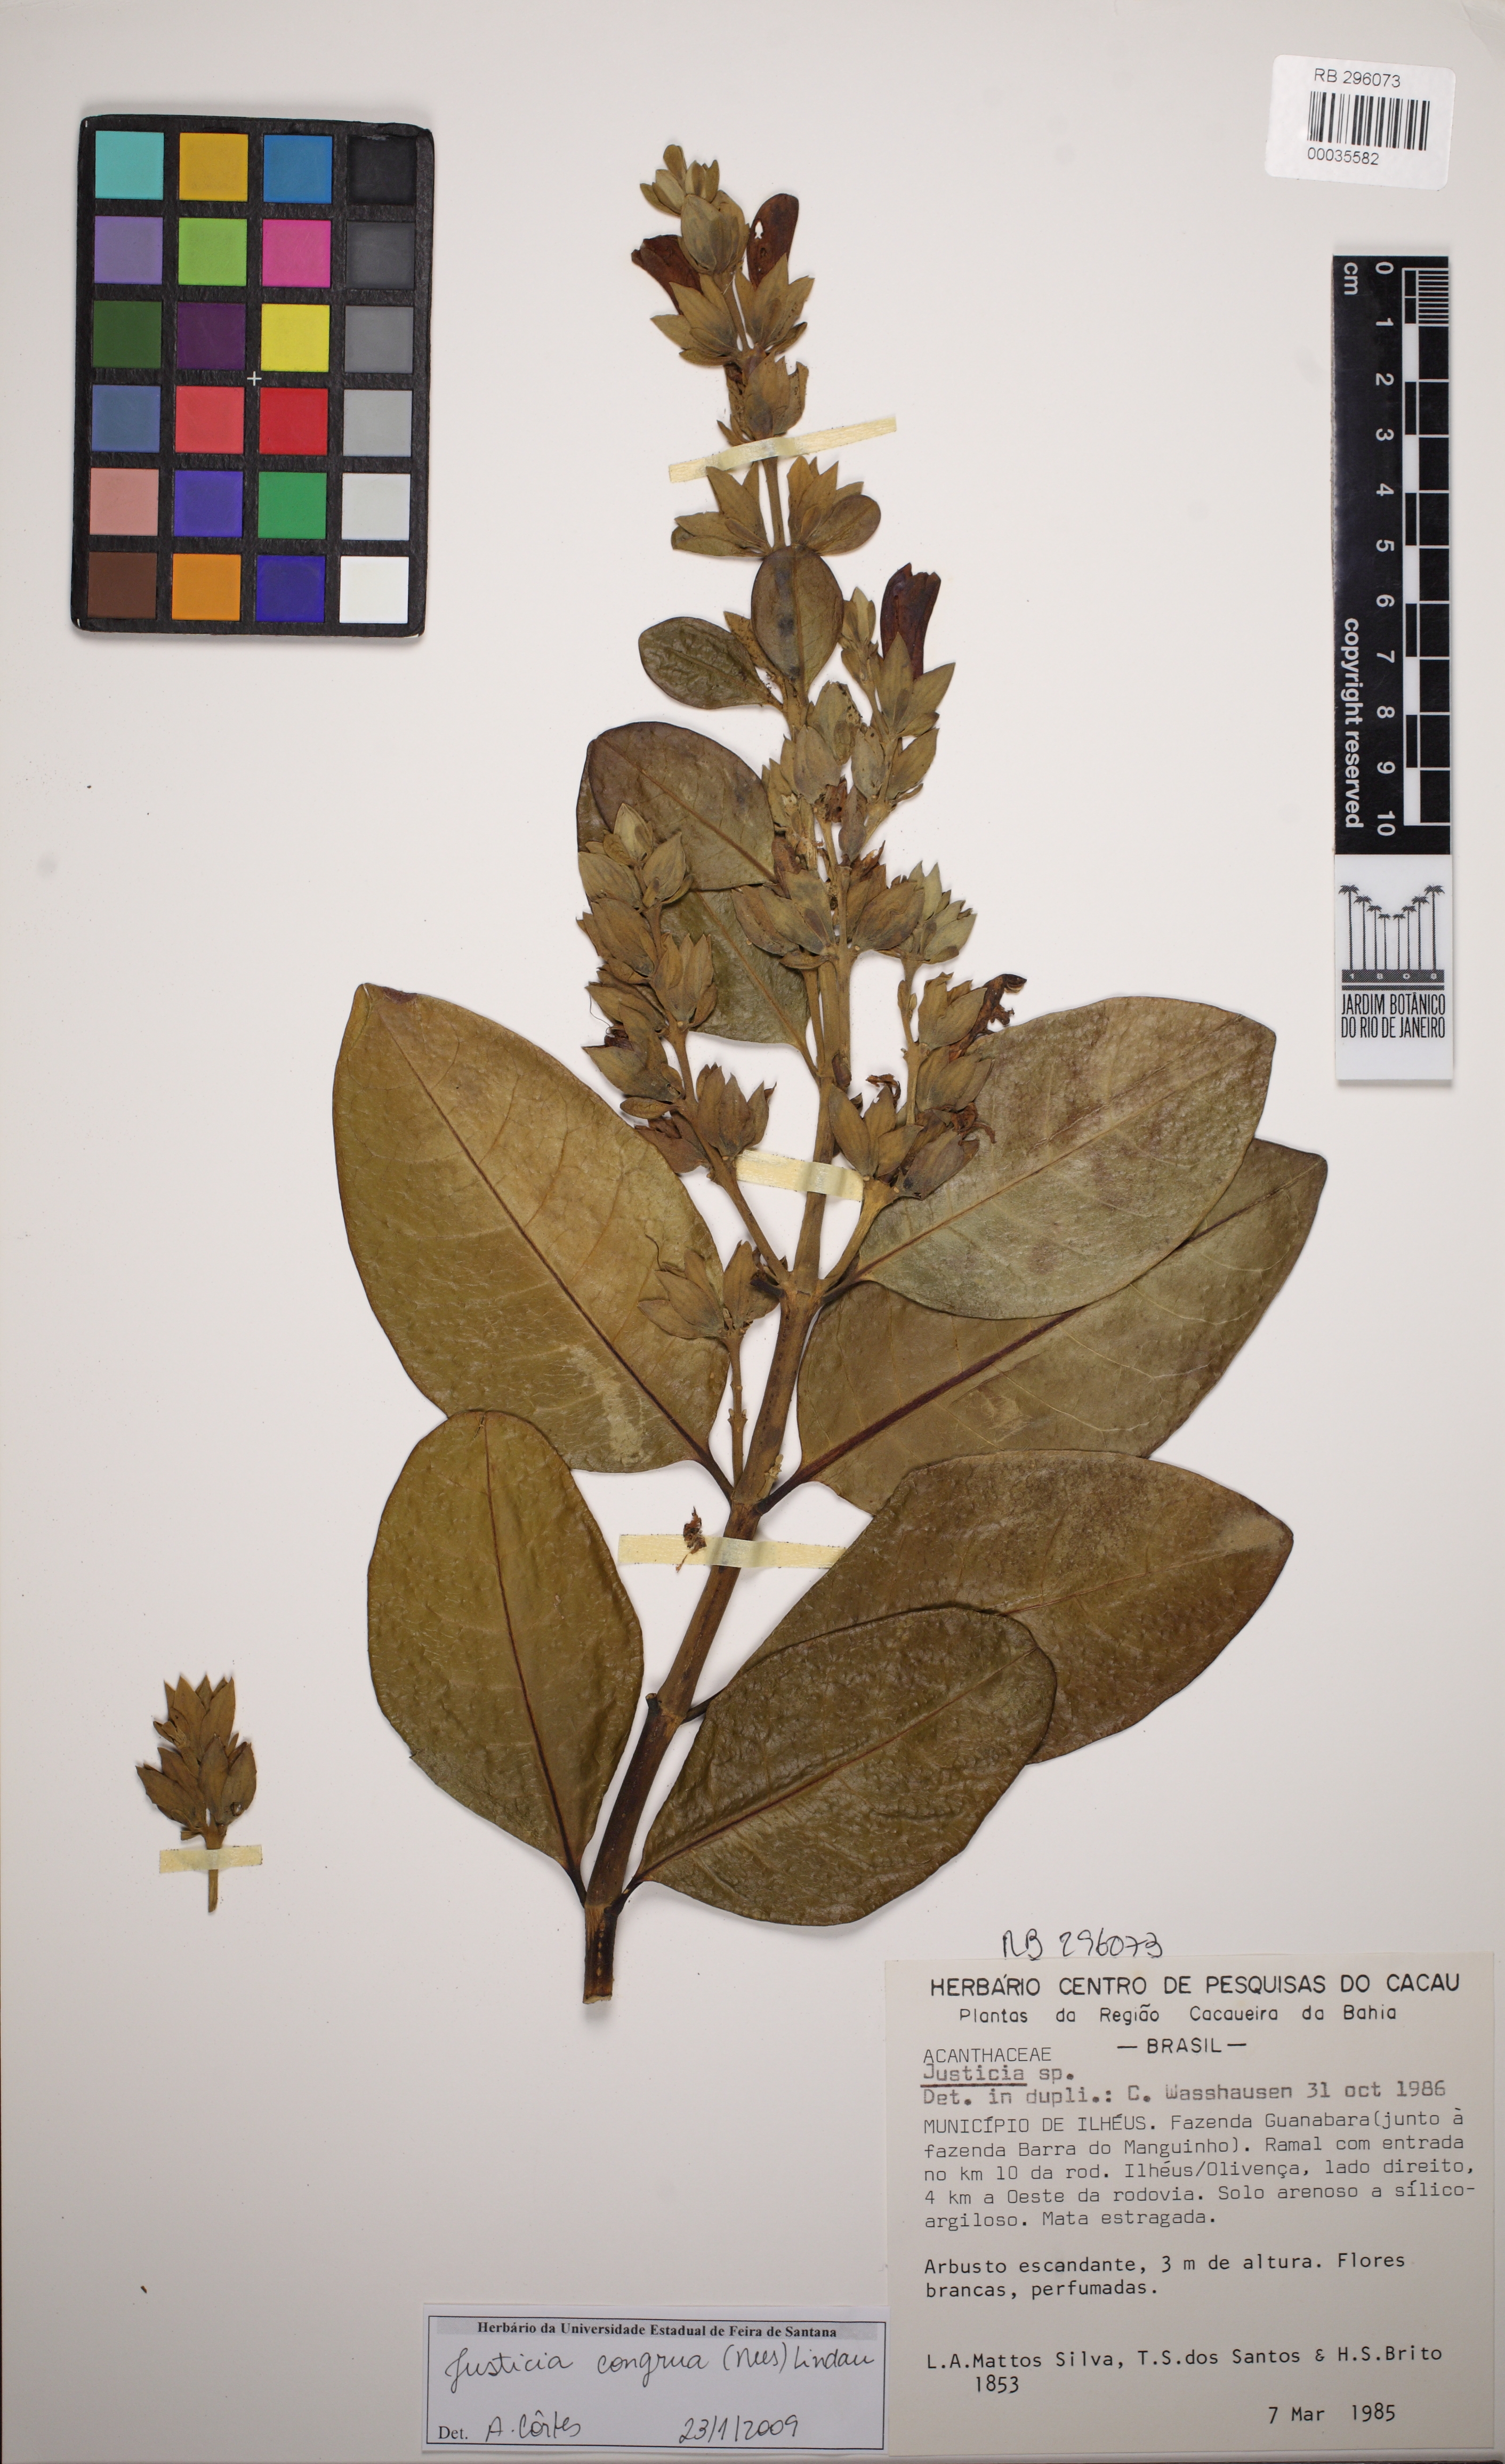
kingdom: Plantae
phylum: Tracheophyta
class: Magnoliopsida
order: Lamiales
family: Acanthaceae
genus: Justicia
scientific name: Justicia congrua
